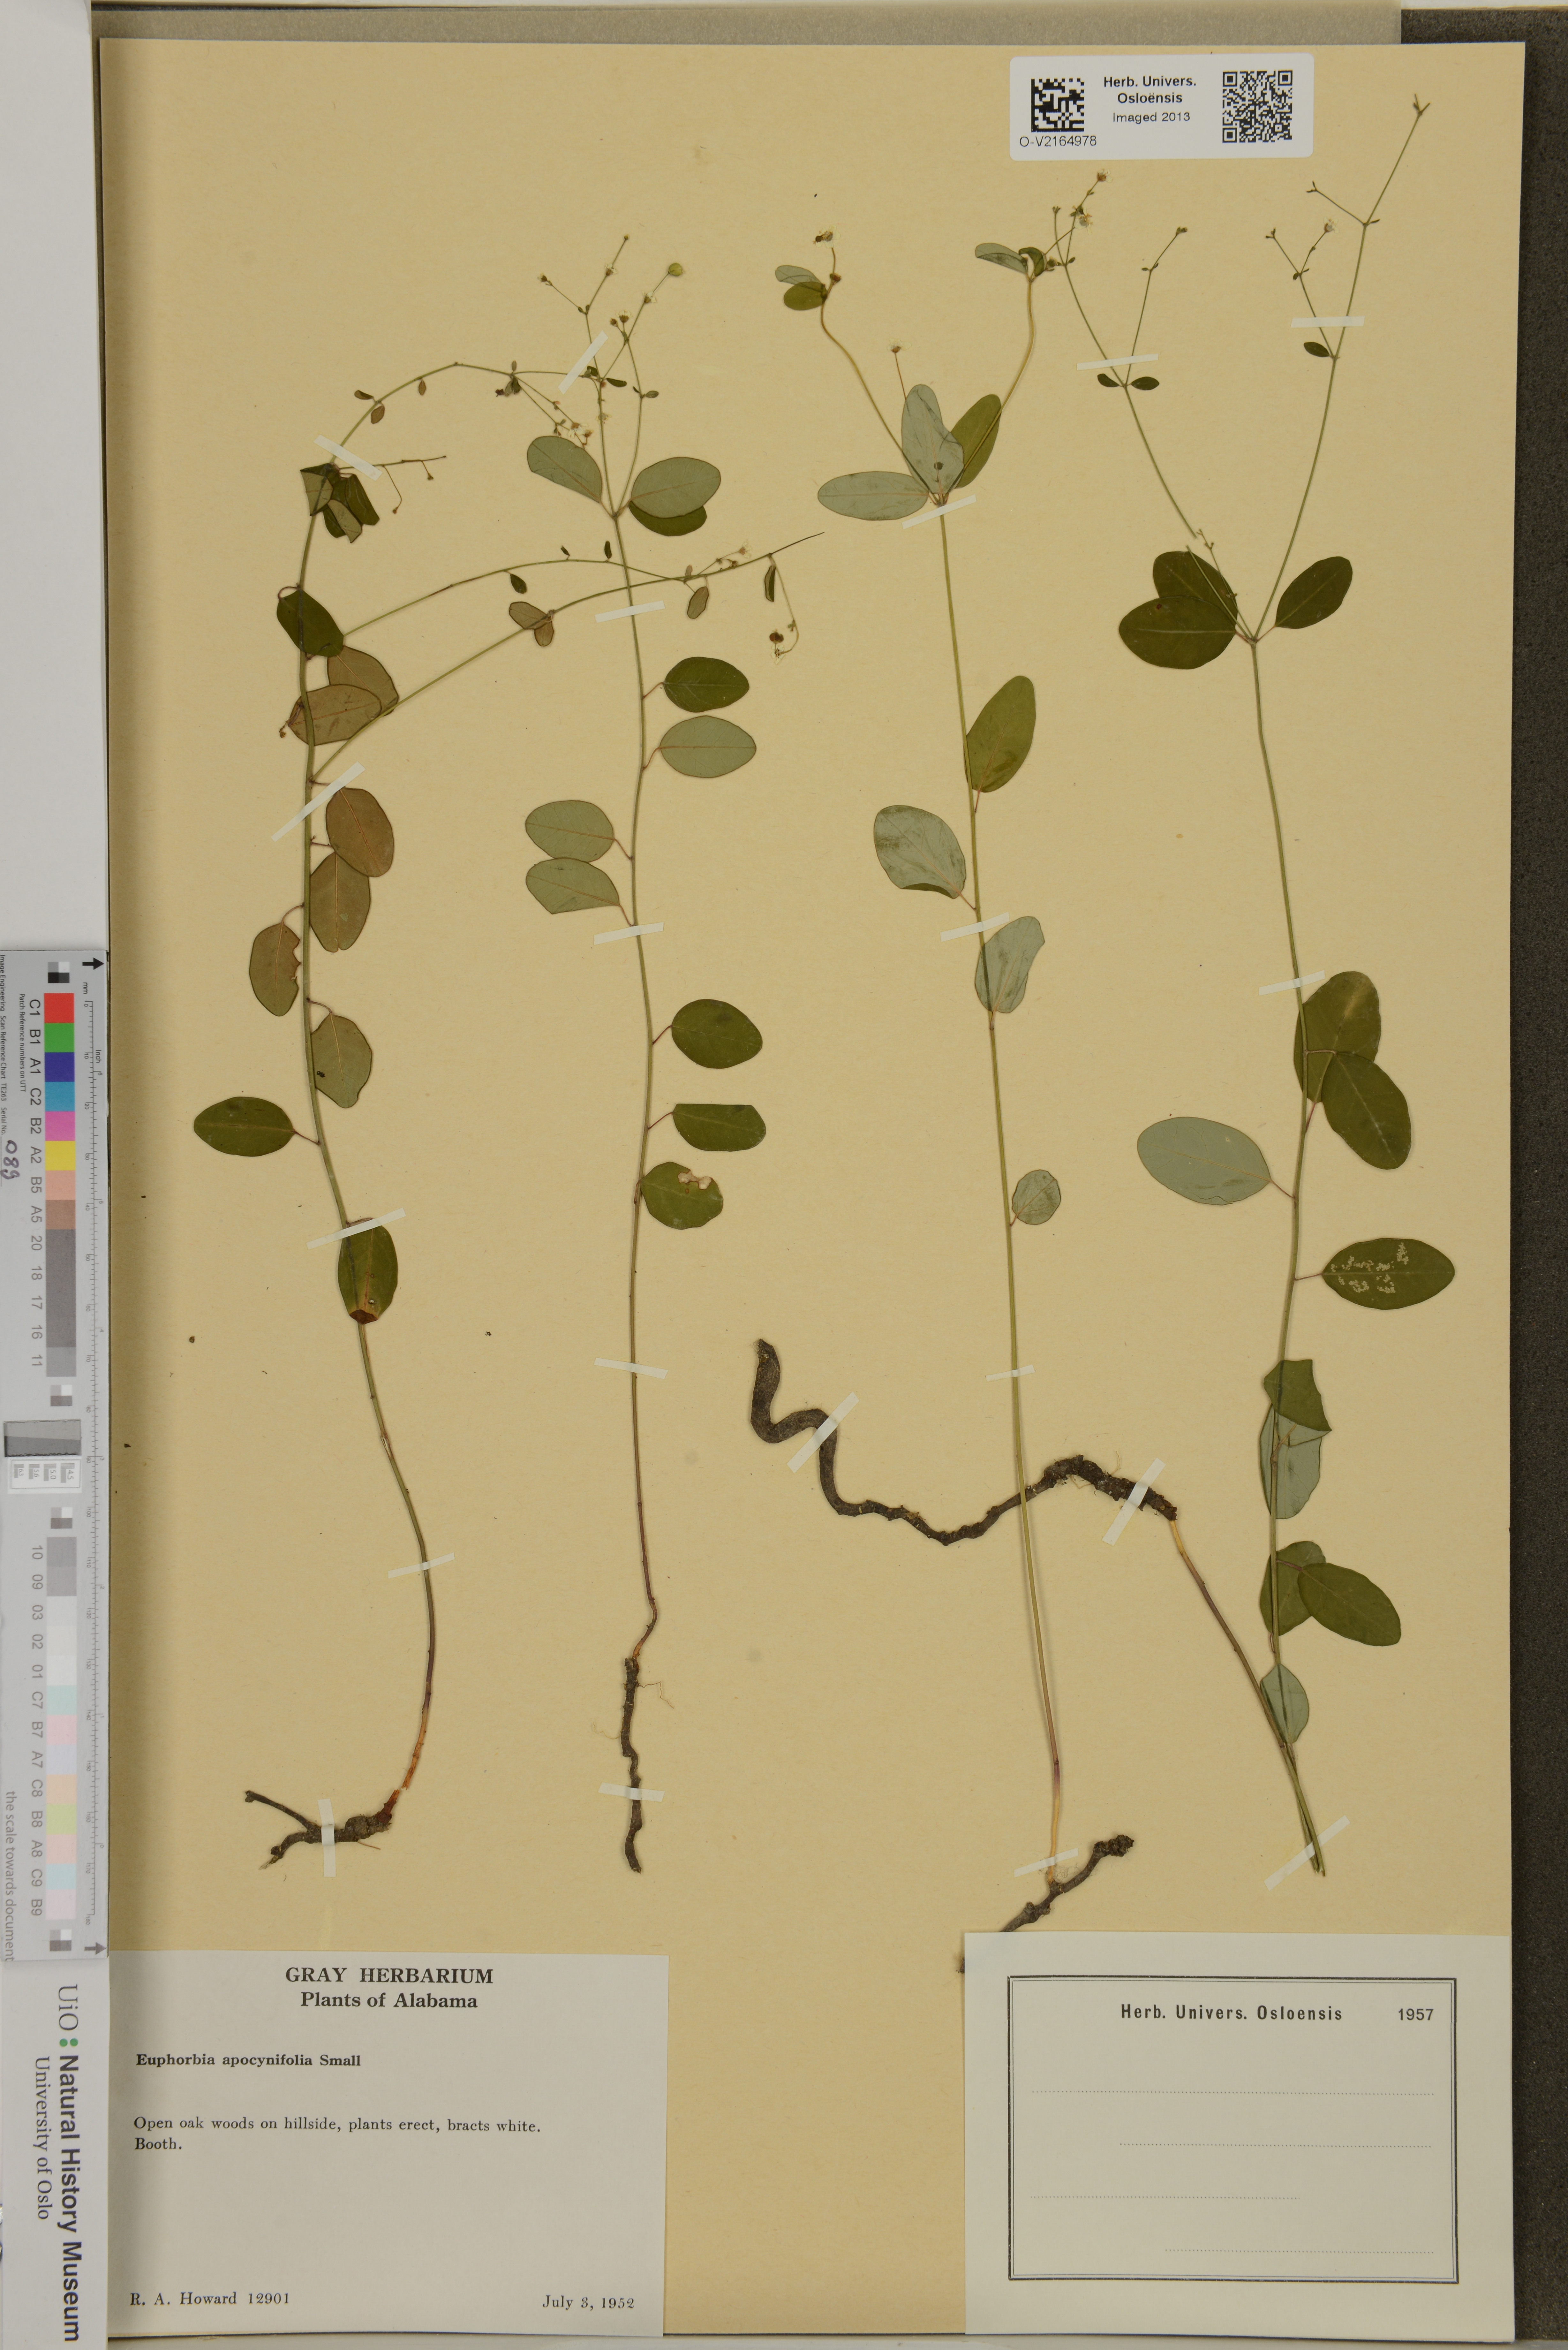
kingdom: Plantae
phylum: Tracheophyta
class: Magnoliopsida
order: Malpighiales
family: Euphorbiaceae
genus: Euphorbia
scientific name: Euphorbia pubentissima
